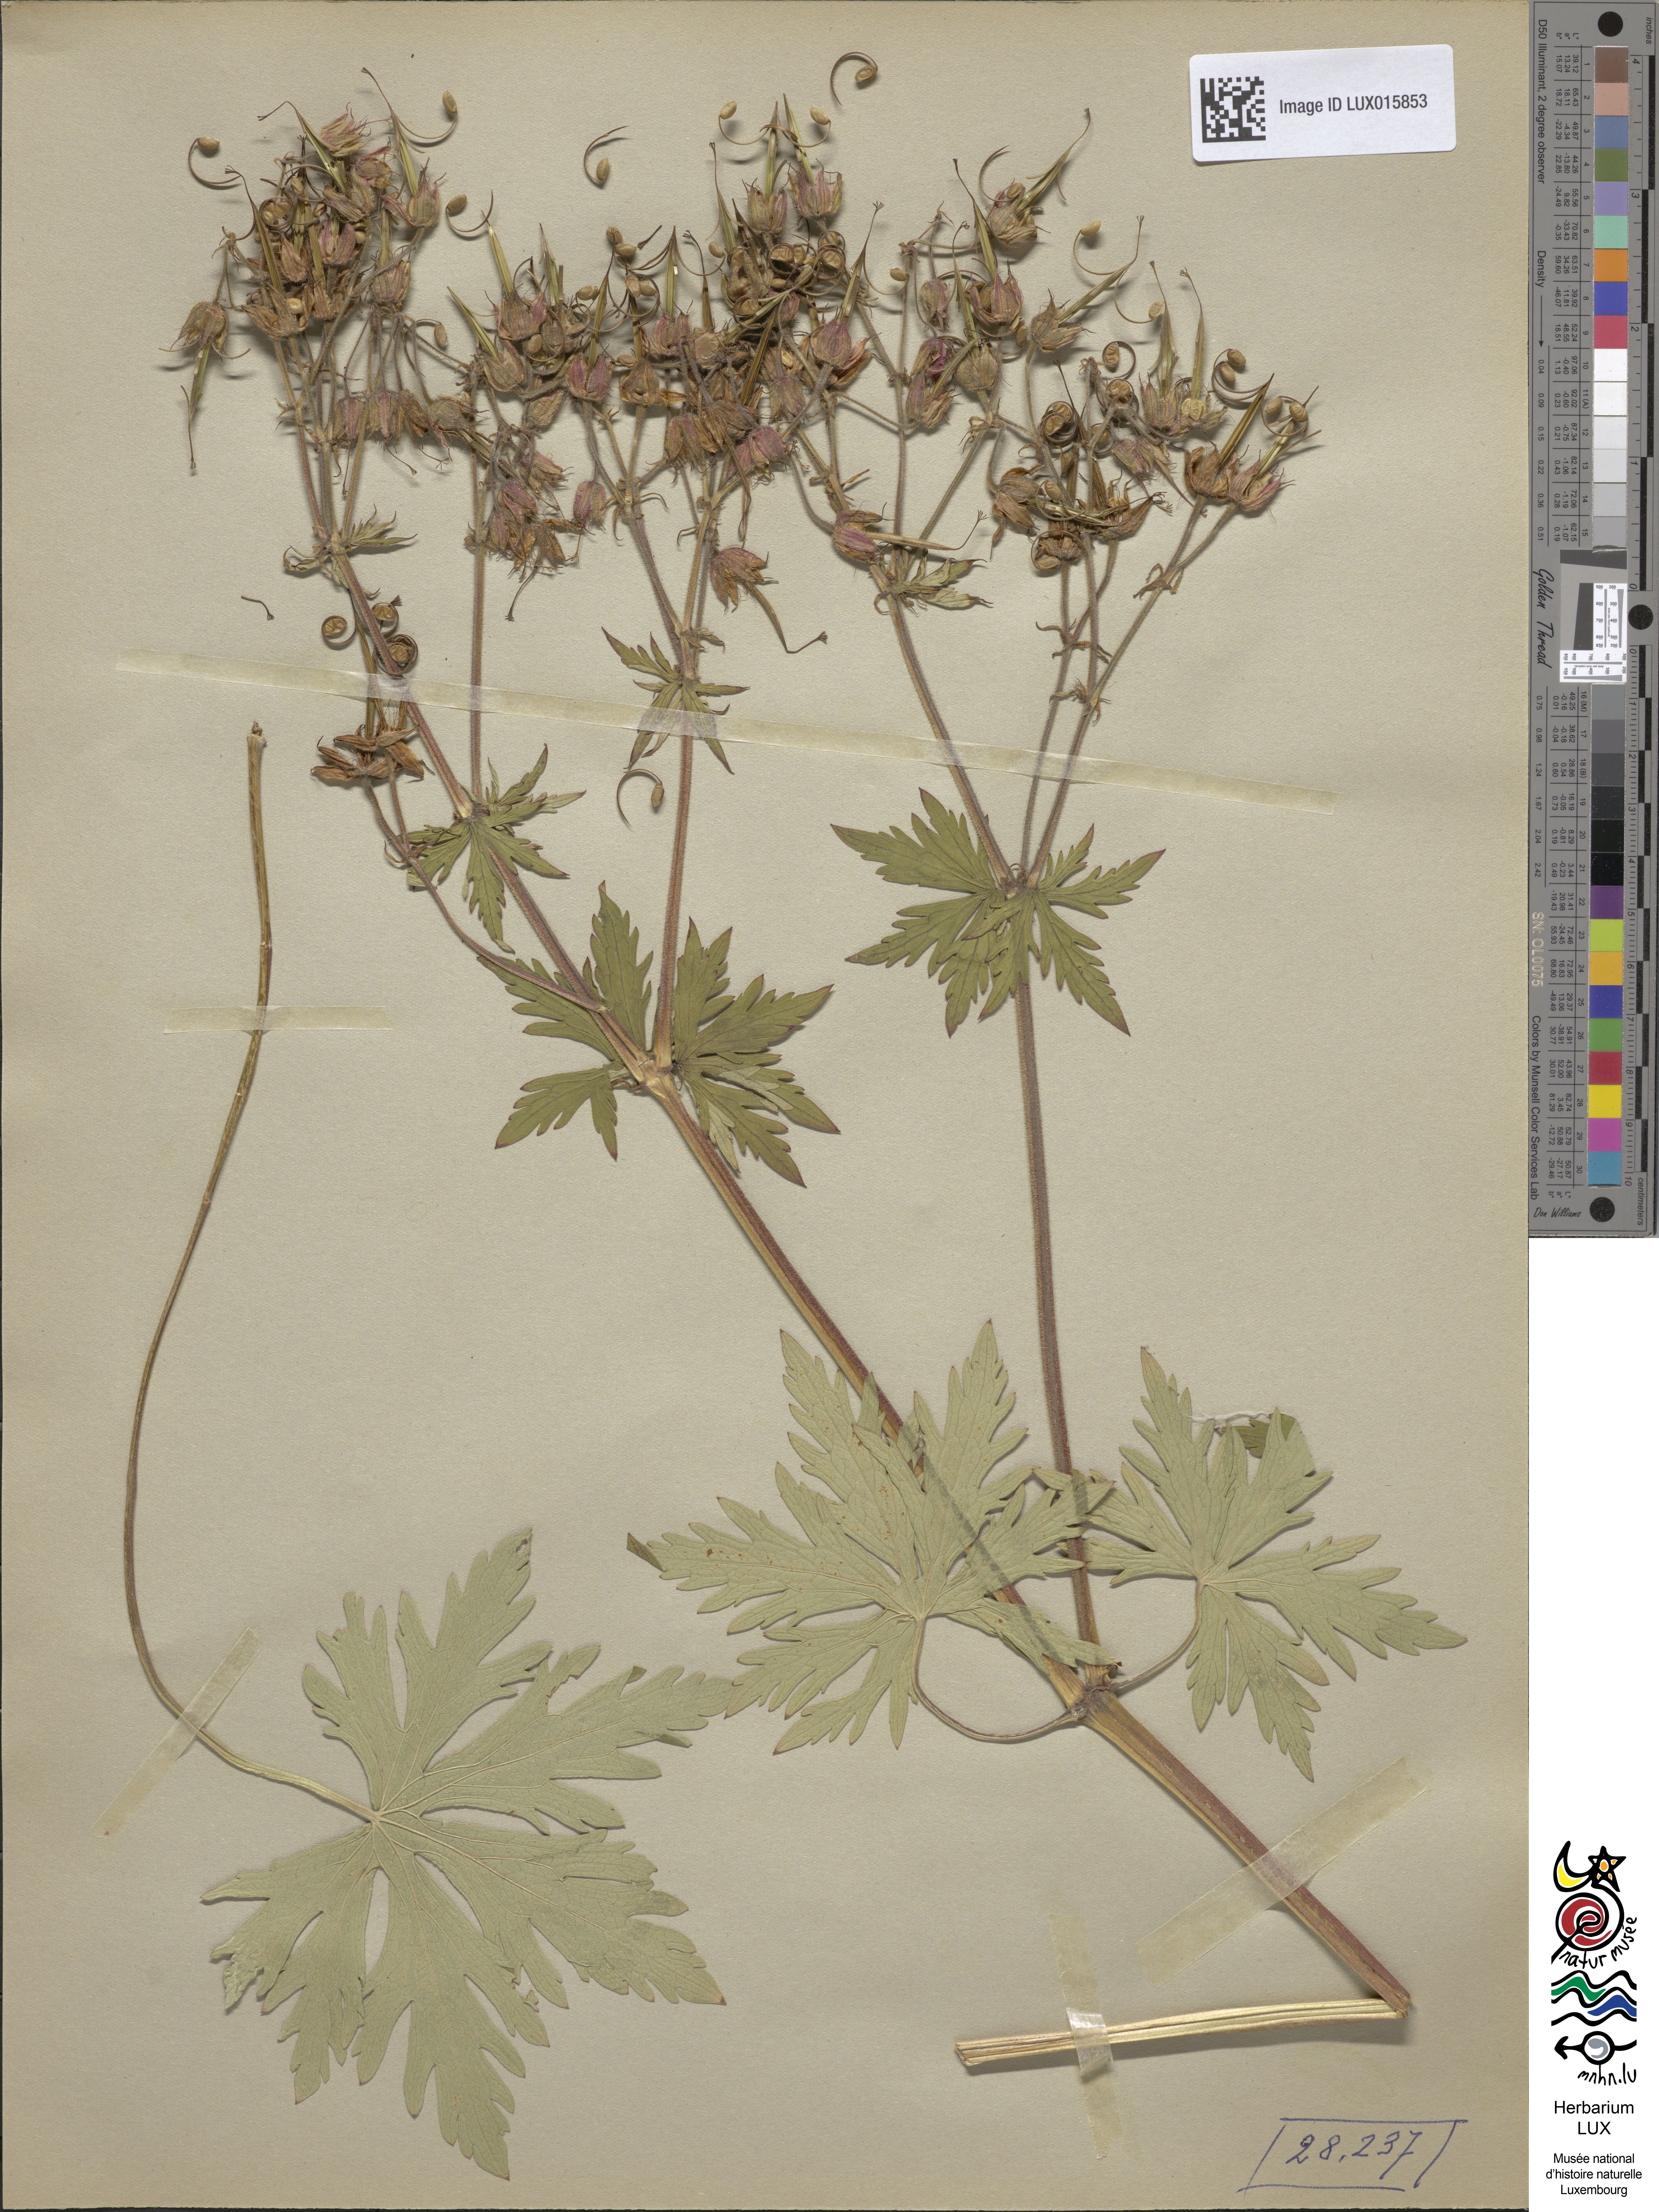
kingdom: Plantae
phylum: Tracheophyta
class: Magnoliopsida
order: Geraniales
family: Geraniaceae
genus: Geranium
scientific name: Geranium pratense
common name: Meadow crane's-bill
